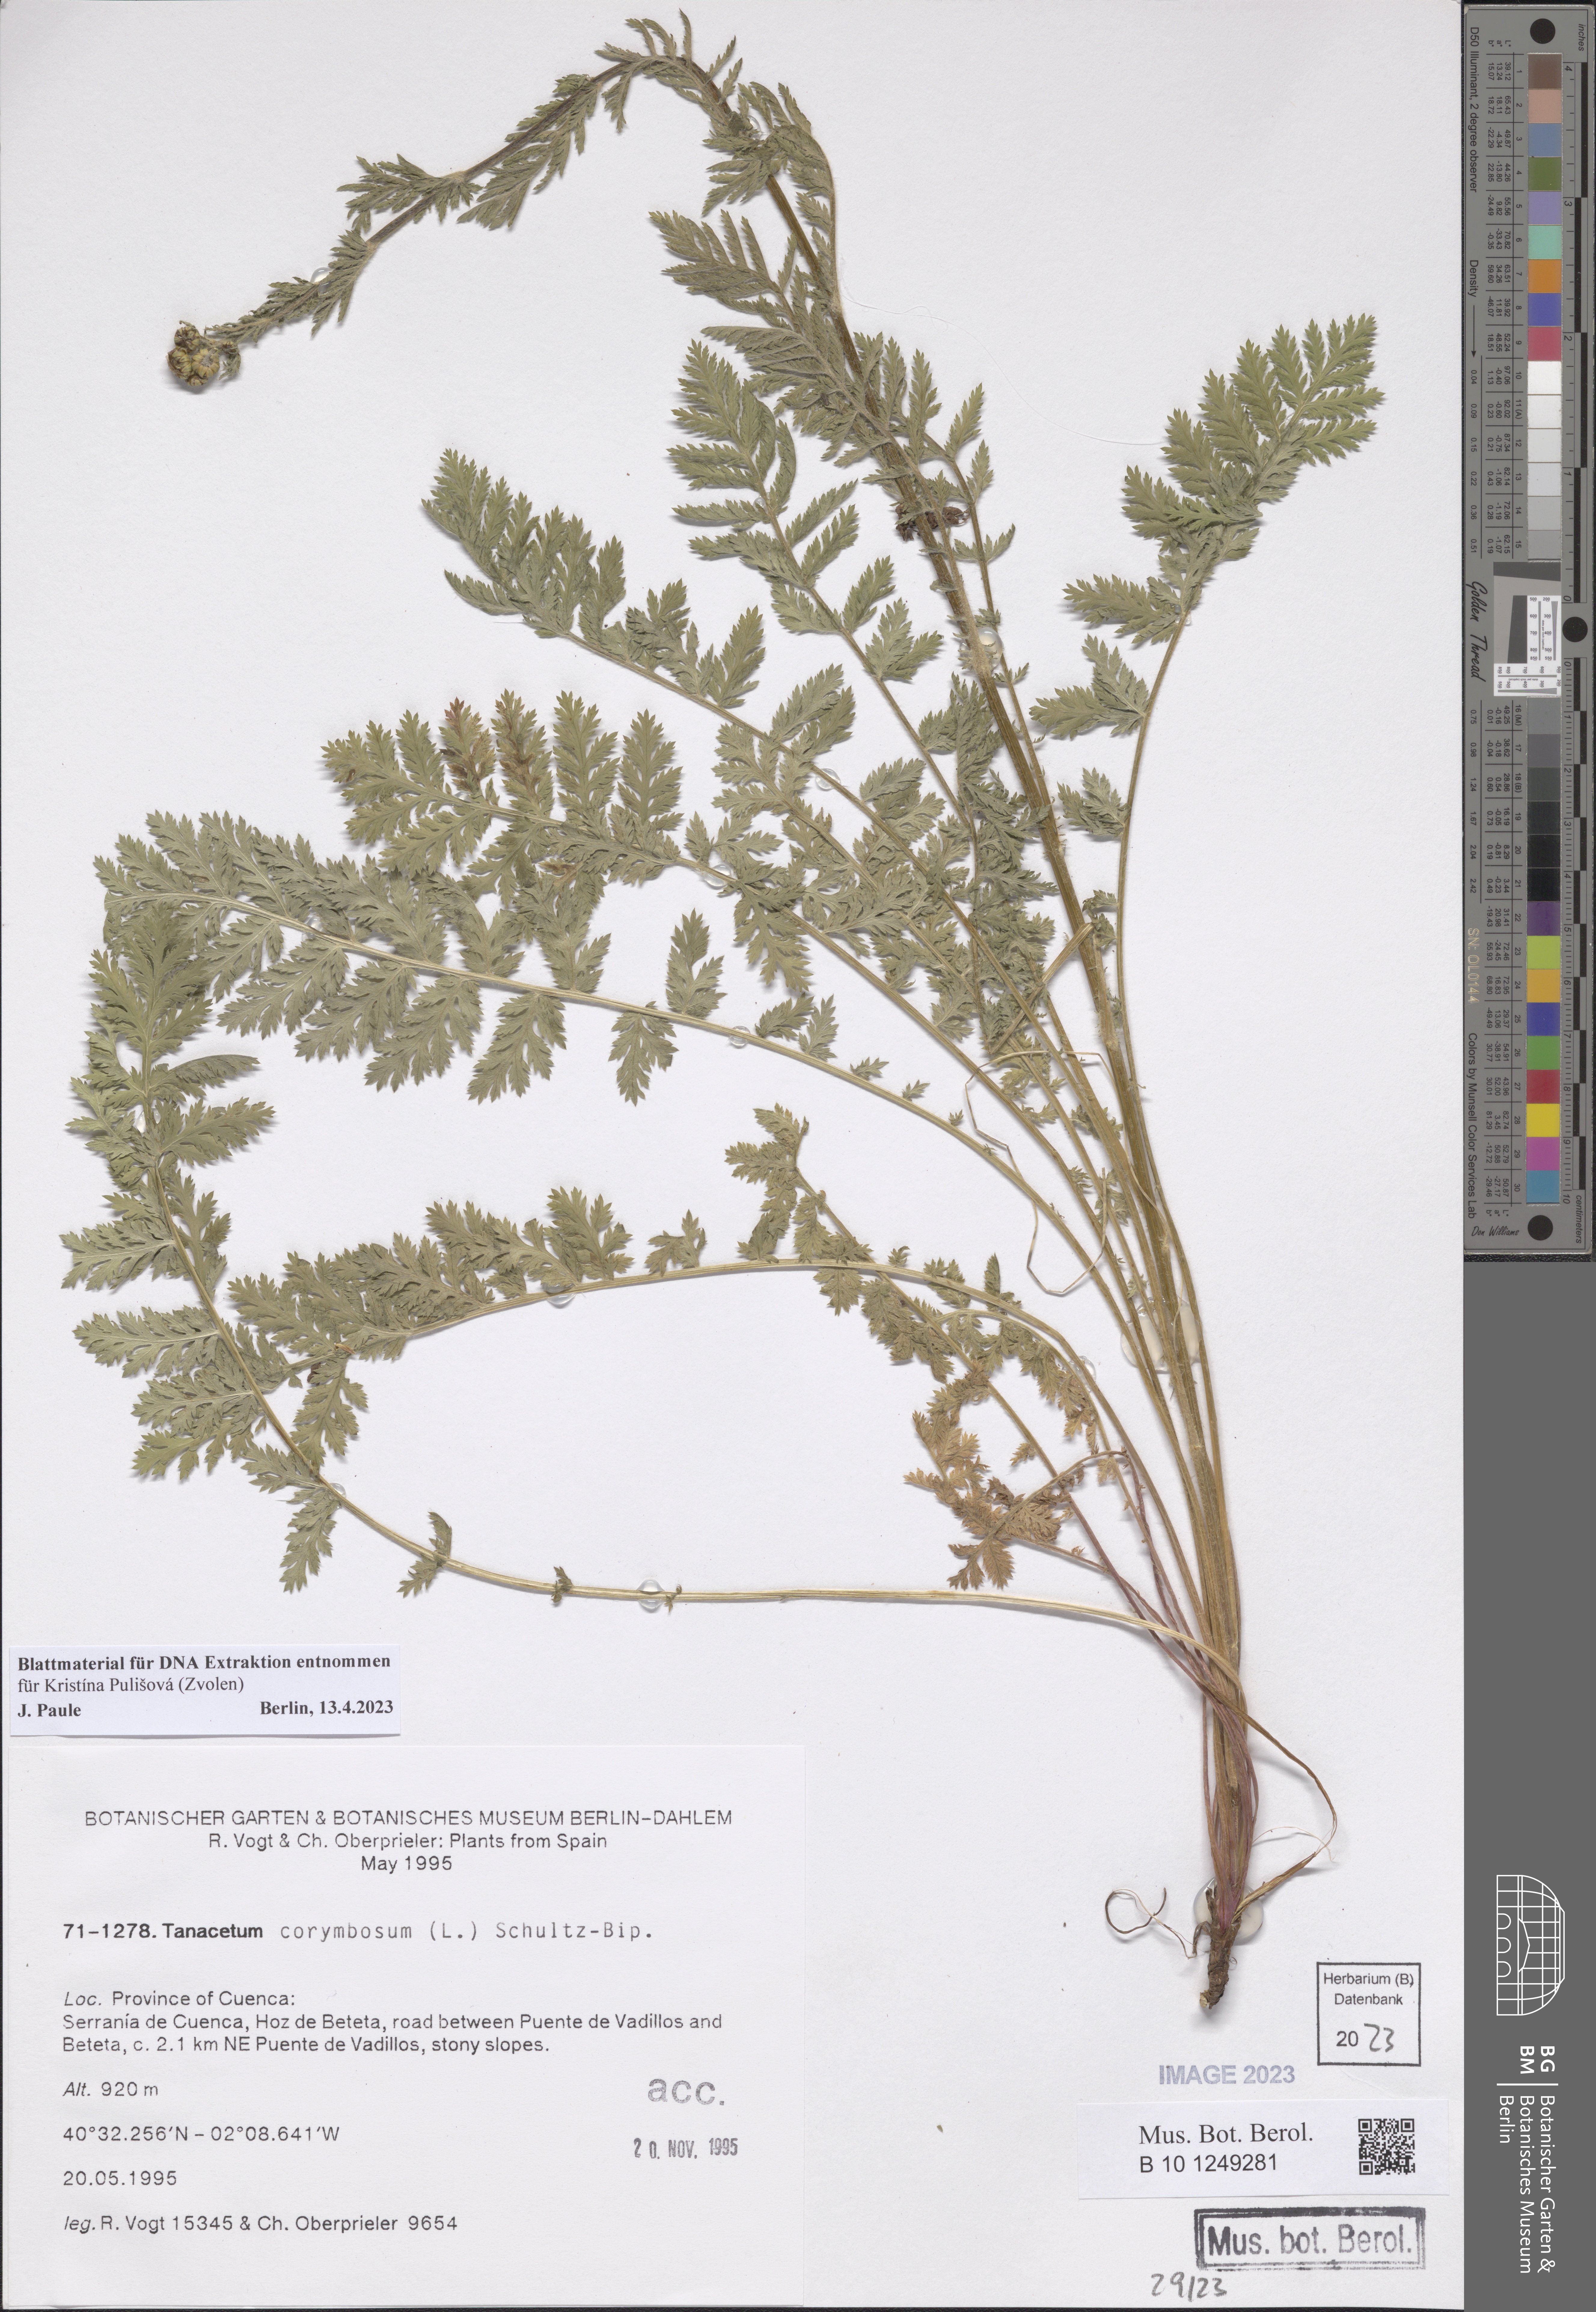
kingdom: Plantae
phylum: Tracheophyta
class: Magnoliopsida
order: Asterales
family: Asteraceae
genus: Tanacetum
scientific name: Tanacetum corymbosum
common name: Scentless feverfew
